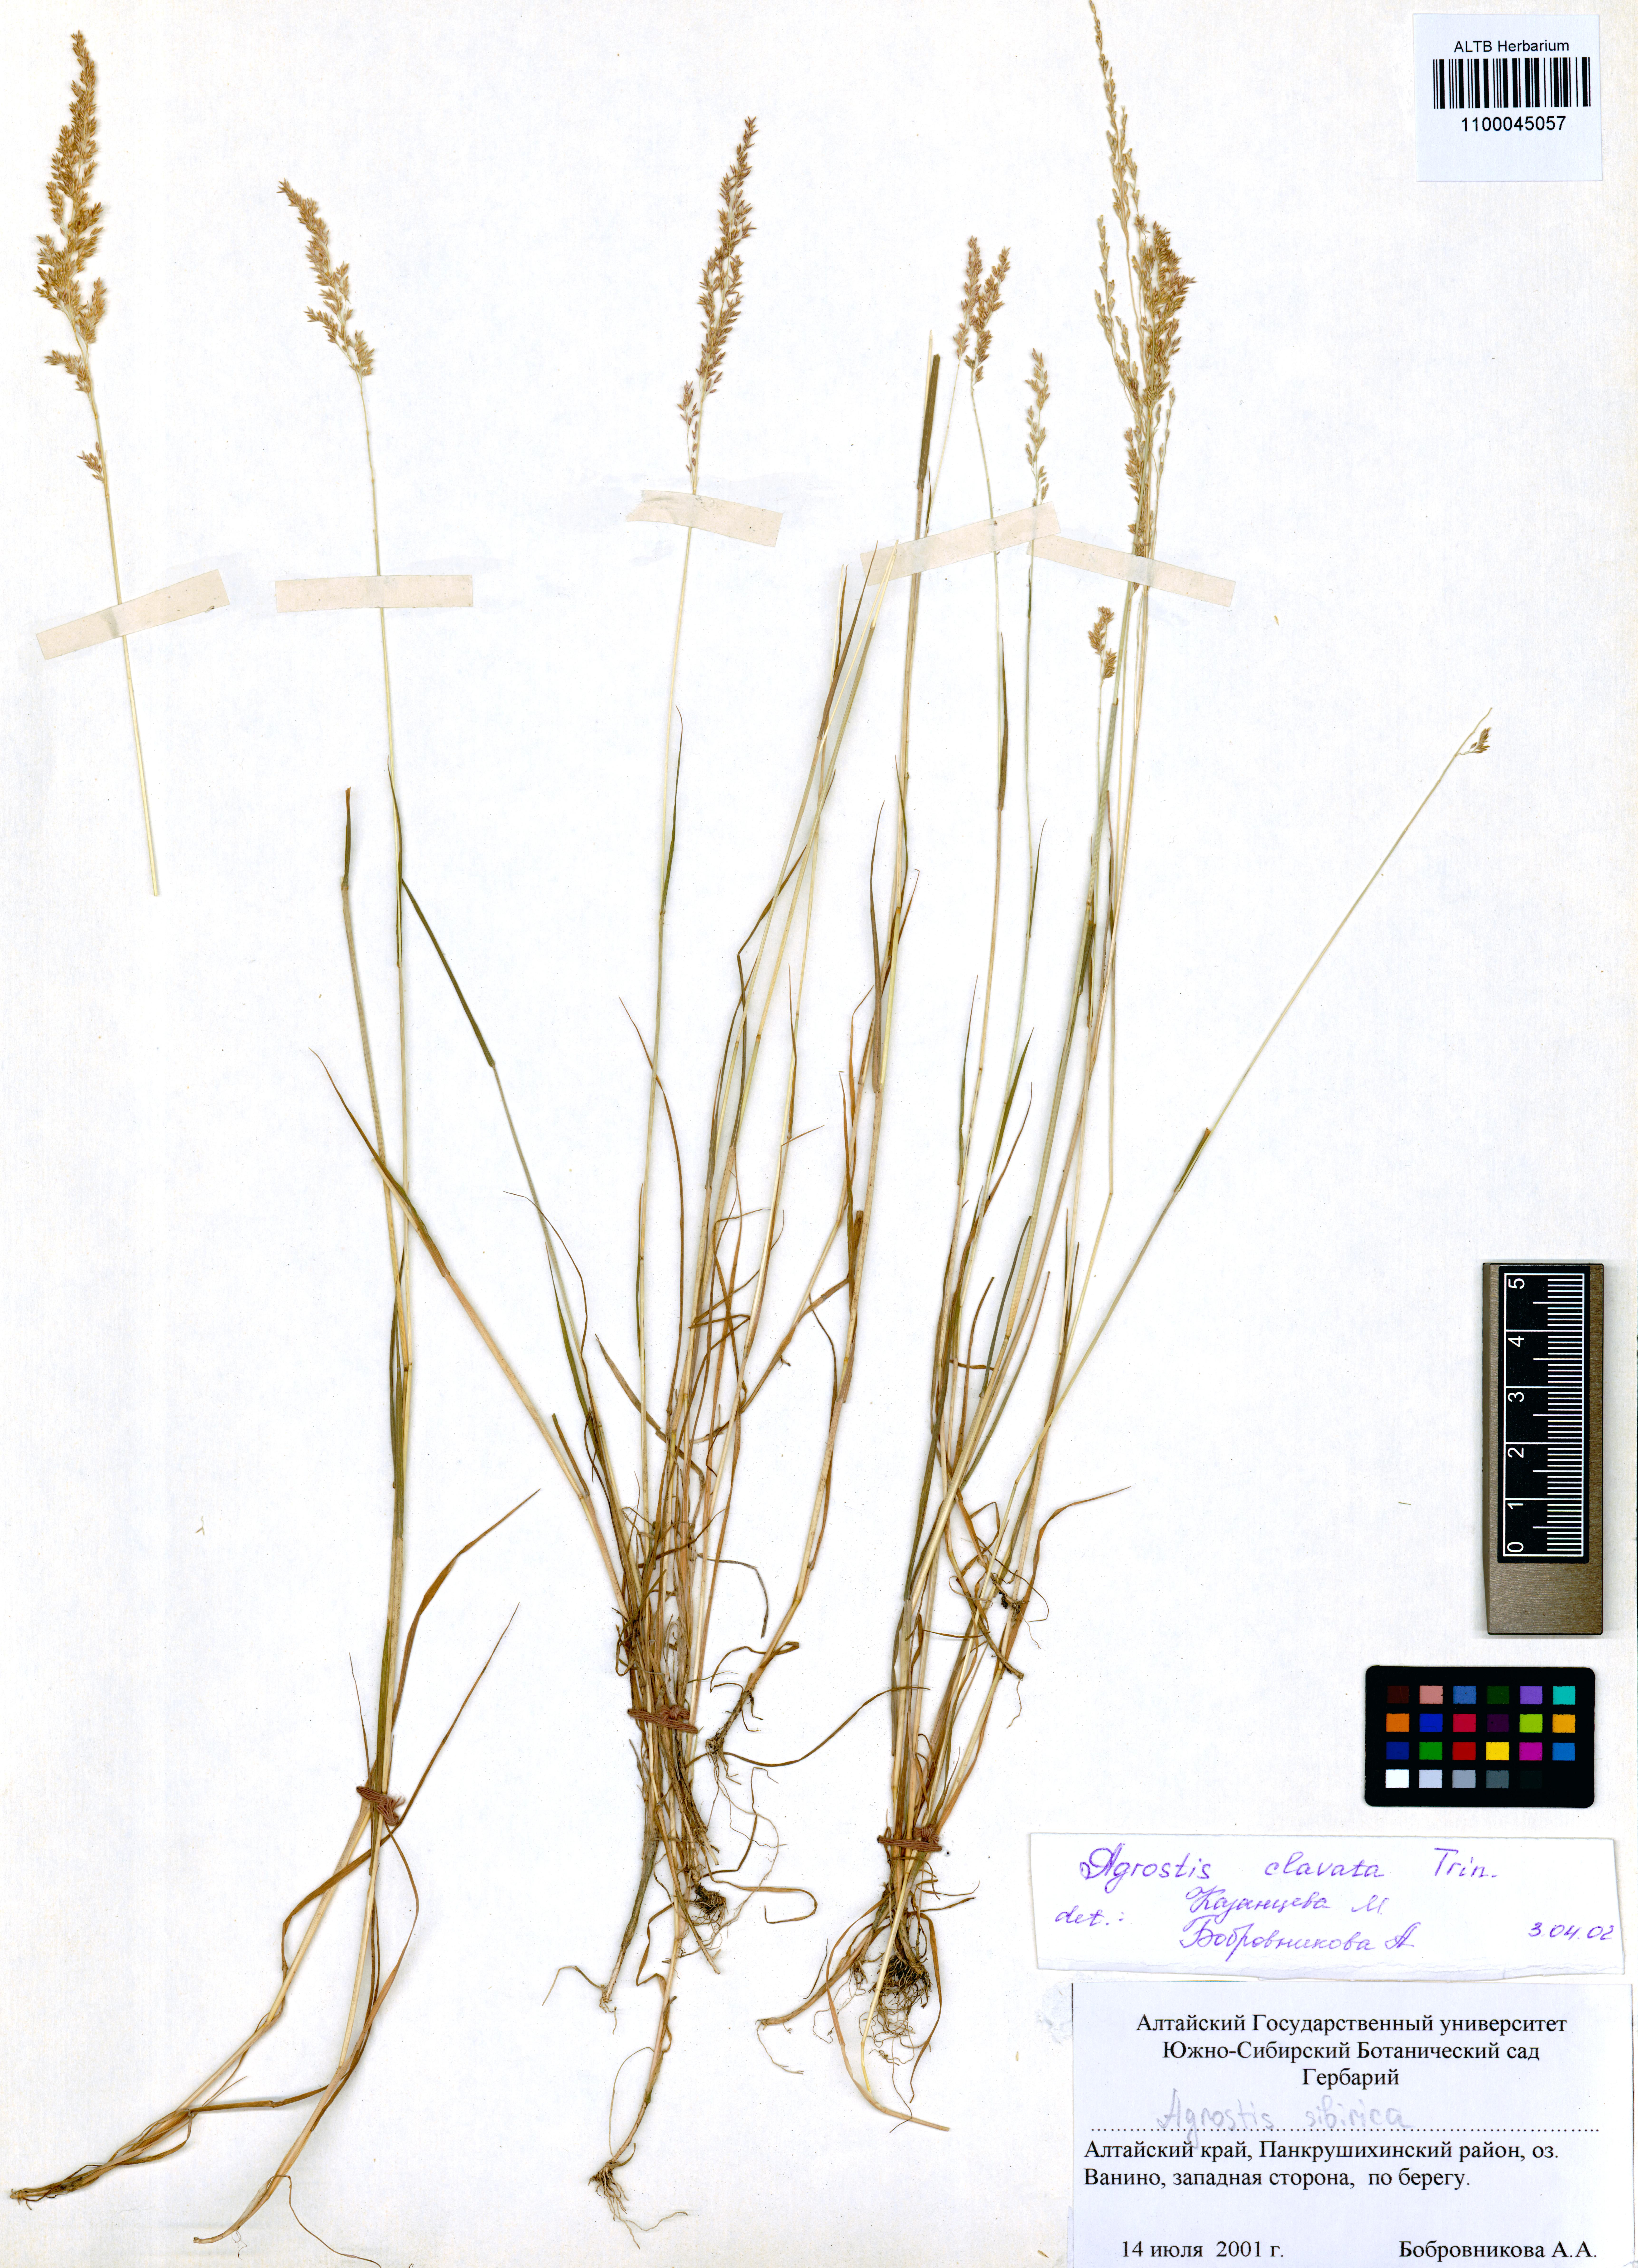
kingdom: Plantae
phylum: Tracheophyta
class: Liliopsida
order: Poales
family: Poaceae
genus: Agrostis
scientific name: Agrostis clavata
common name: Clavate bent
